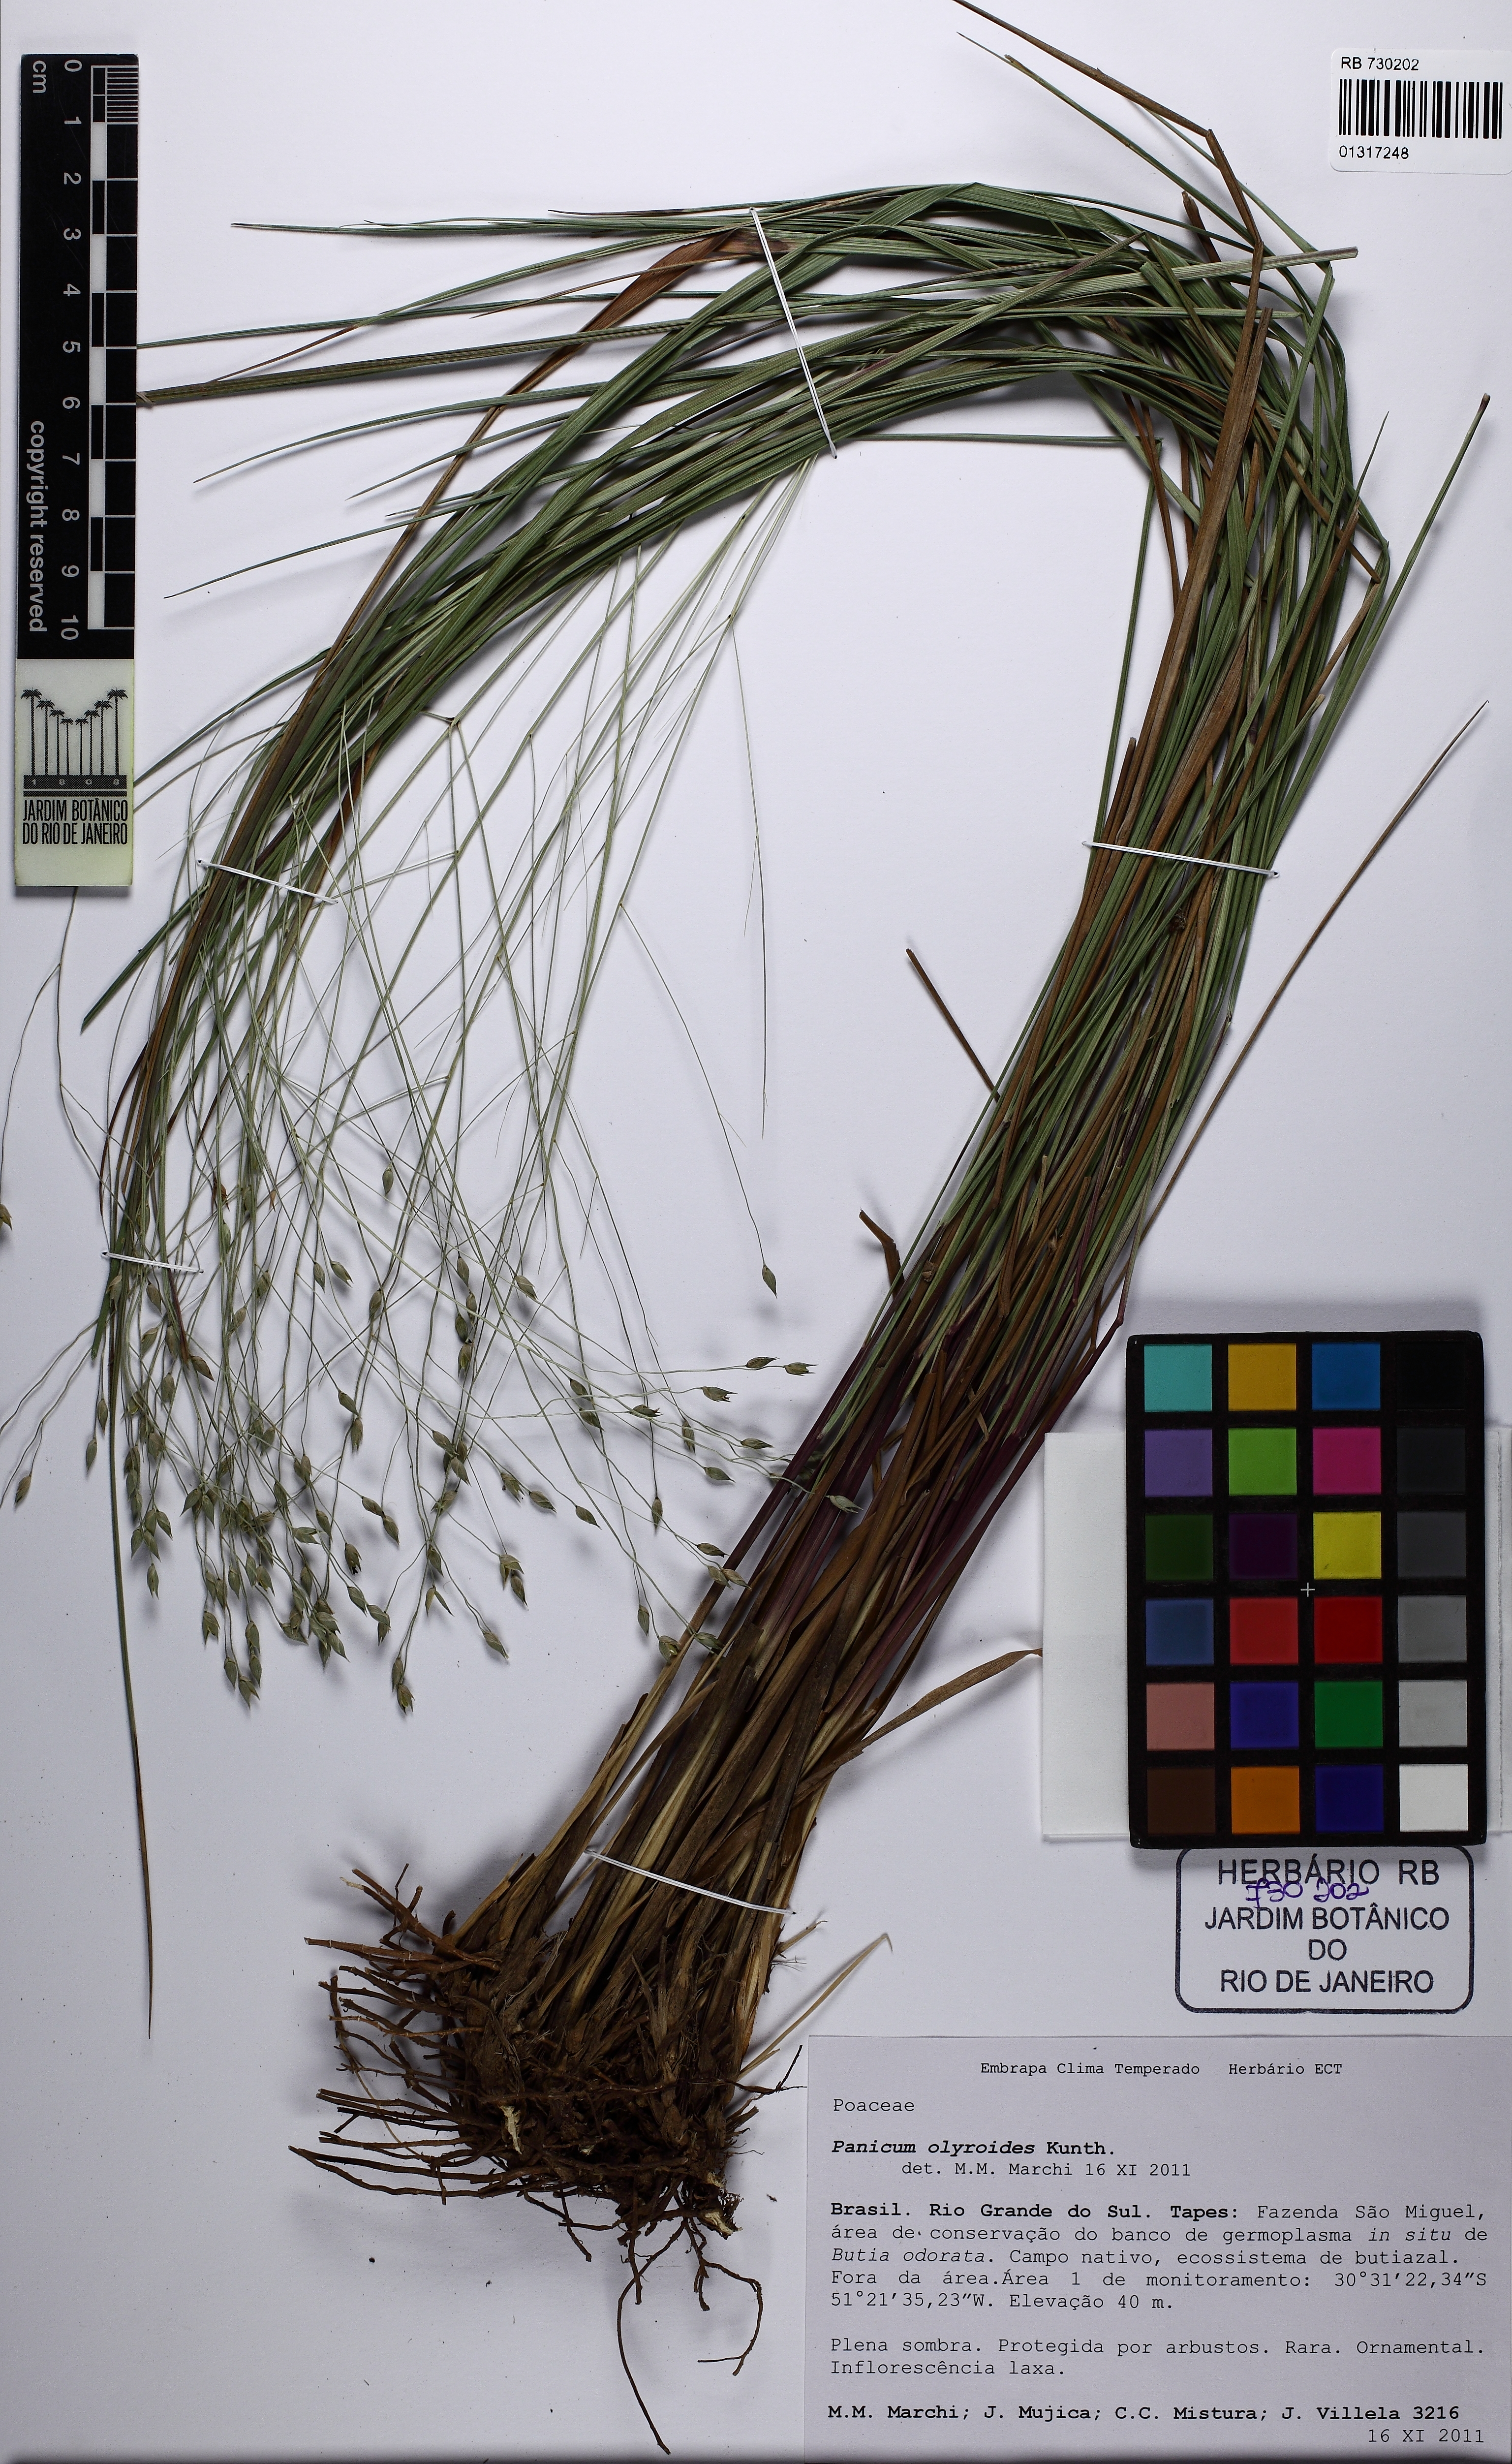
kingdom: Plantae
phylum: Tracheophyta
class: Liliopsida
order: Poales
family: Poaceae
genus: Panicum
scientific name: Panicum olyroides
